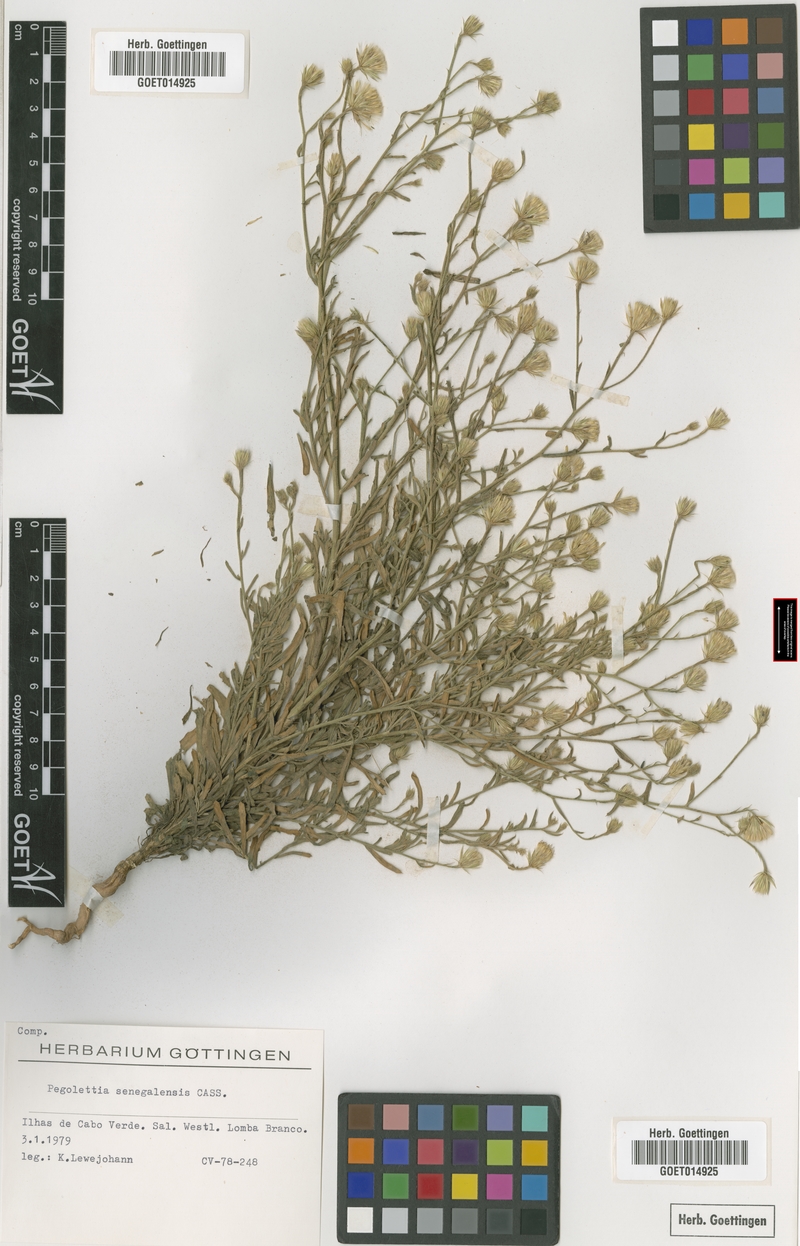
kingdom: Plantae
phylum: Tracheophyta
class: Magnoliopsida
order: Asterales
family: Asteraceae
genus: Pegolettia
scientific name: Pegolettia senegalensis
